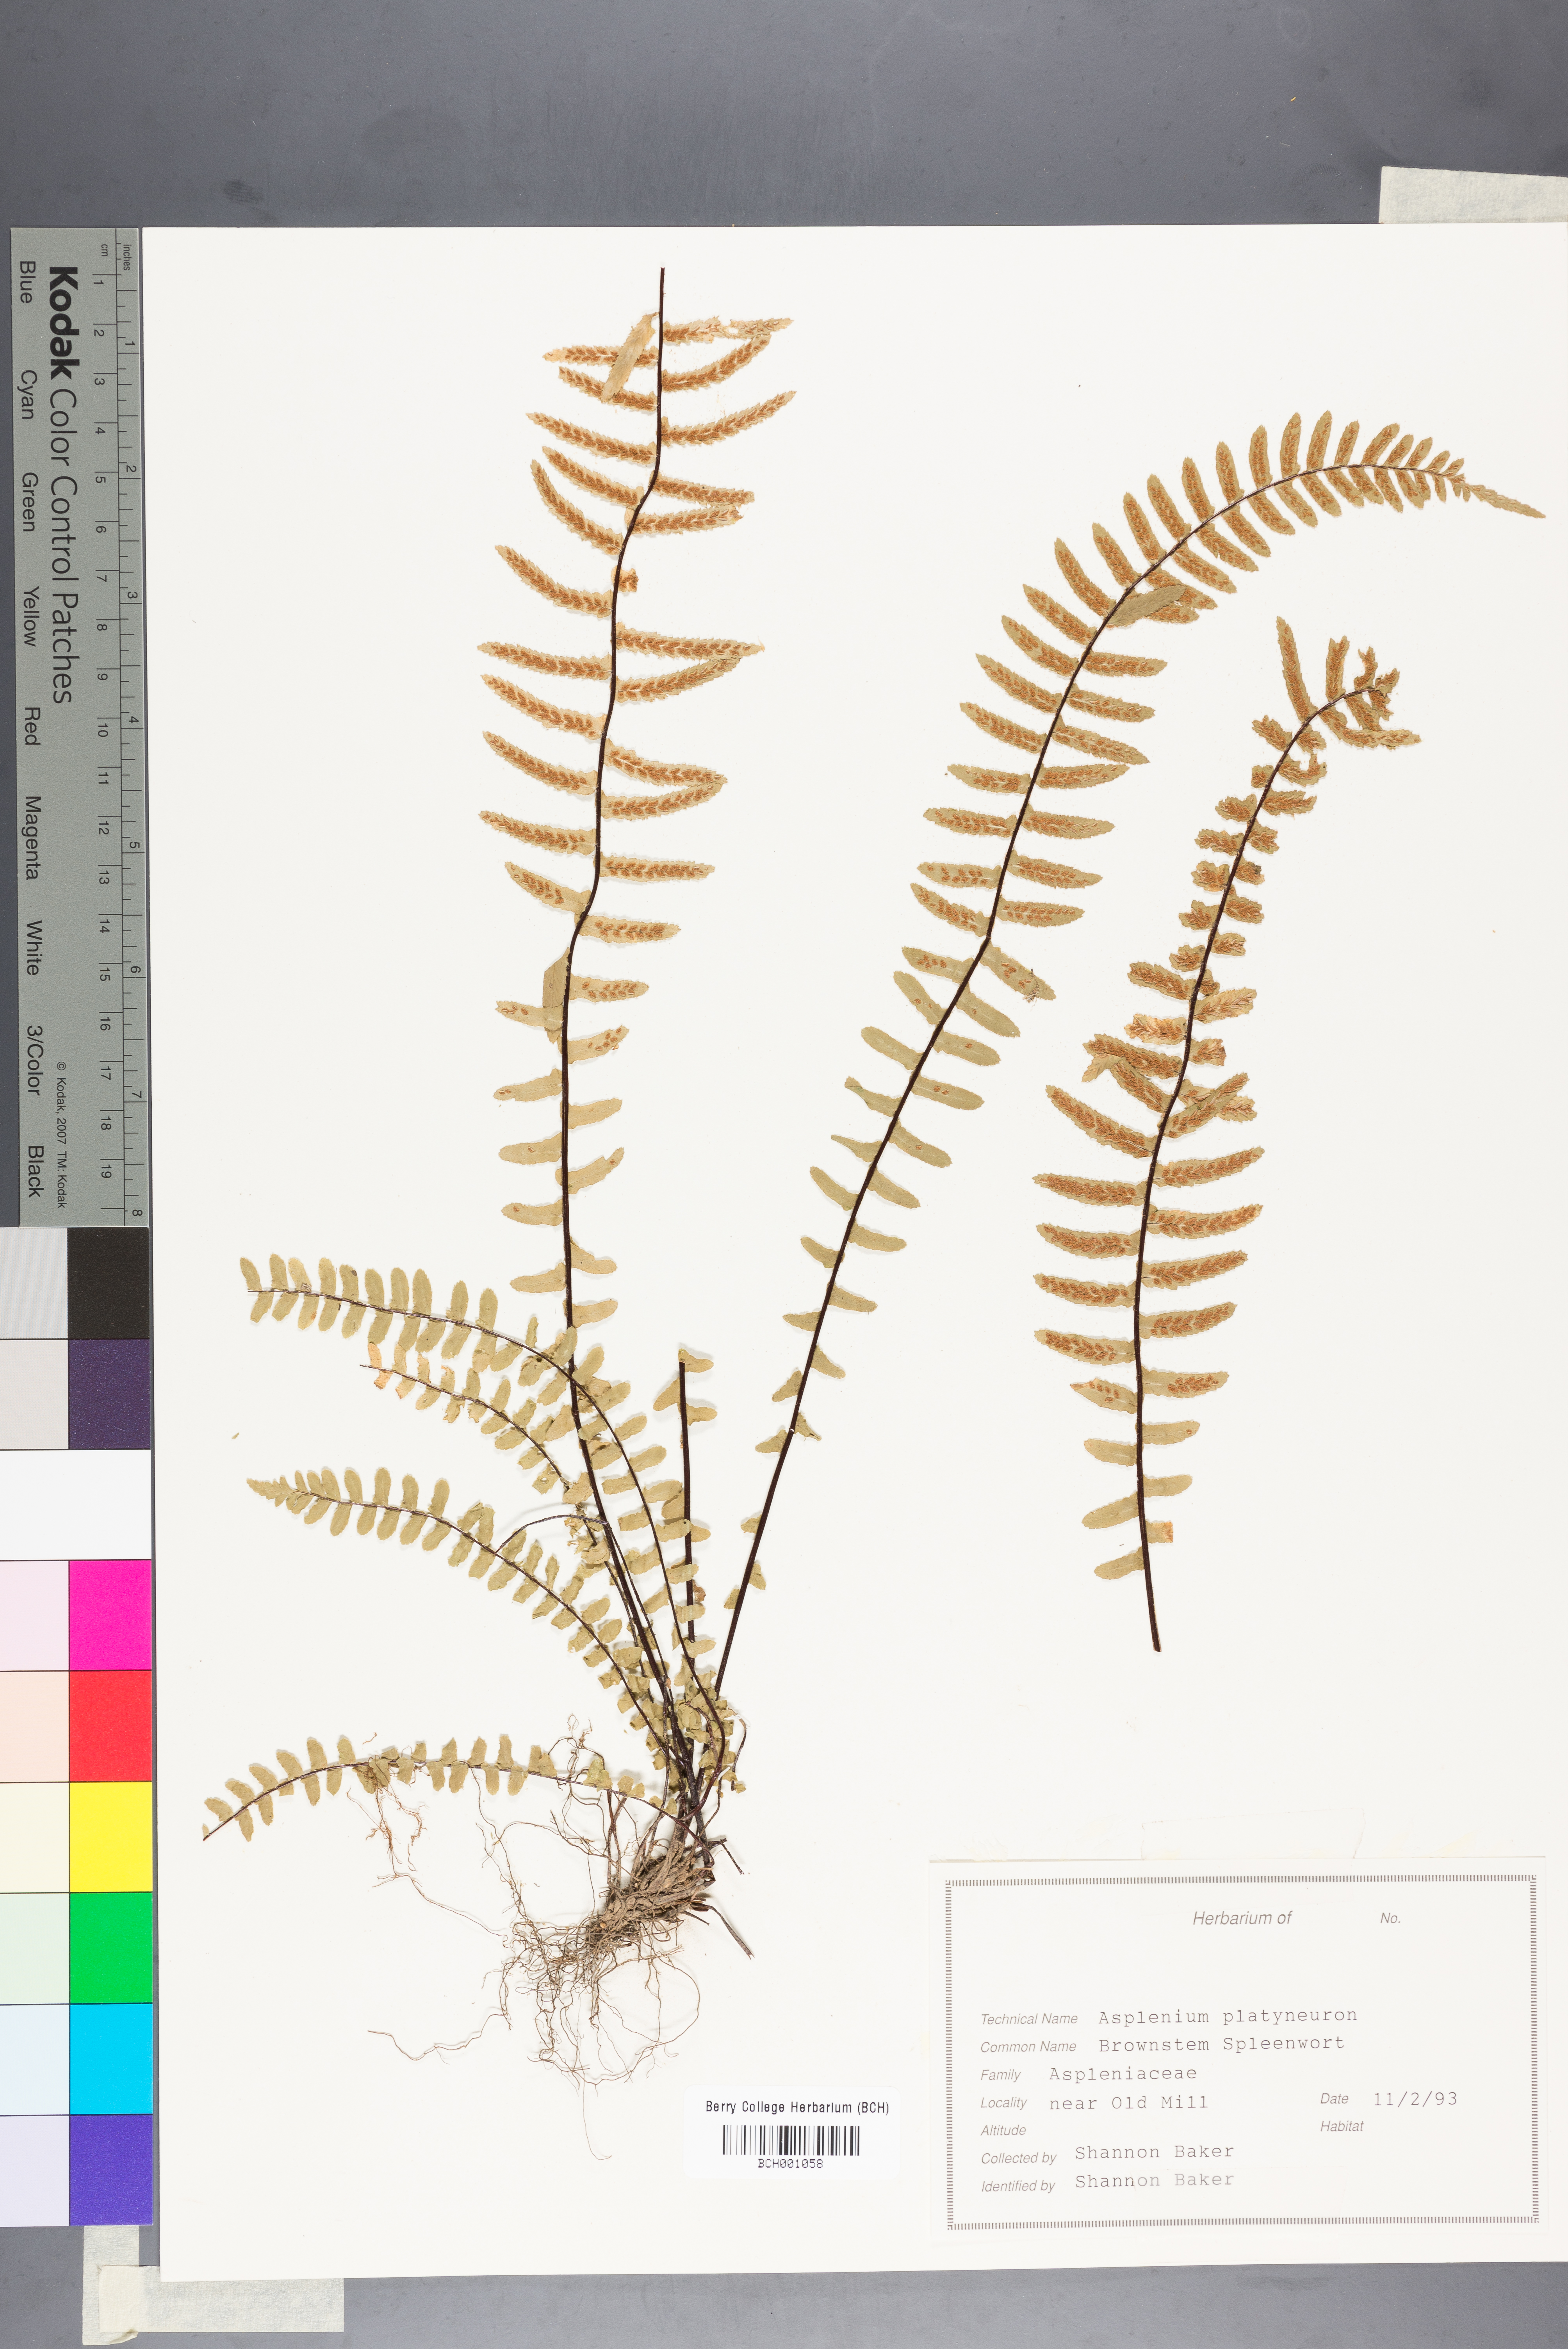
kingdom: Plantae
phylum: Tracheophyta
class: Polypodiopsida
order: Polypodiales
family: Aspleniaceae
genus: Asplenium
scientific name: Asplenium platyneuron
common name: Ebony spleenwort
